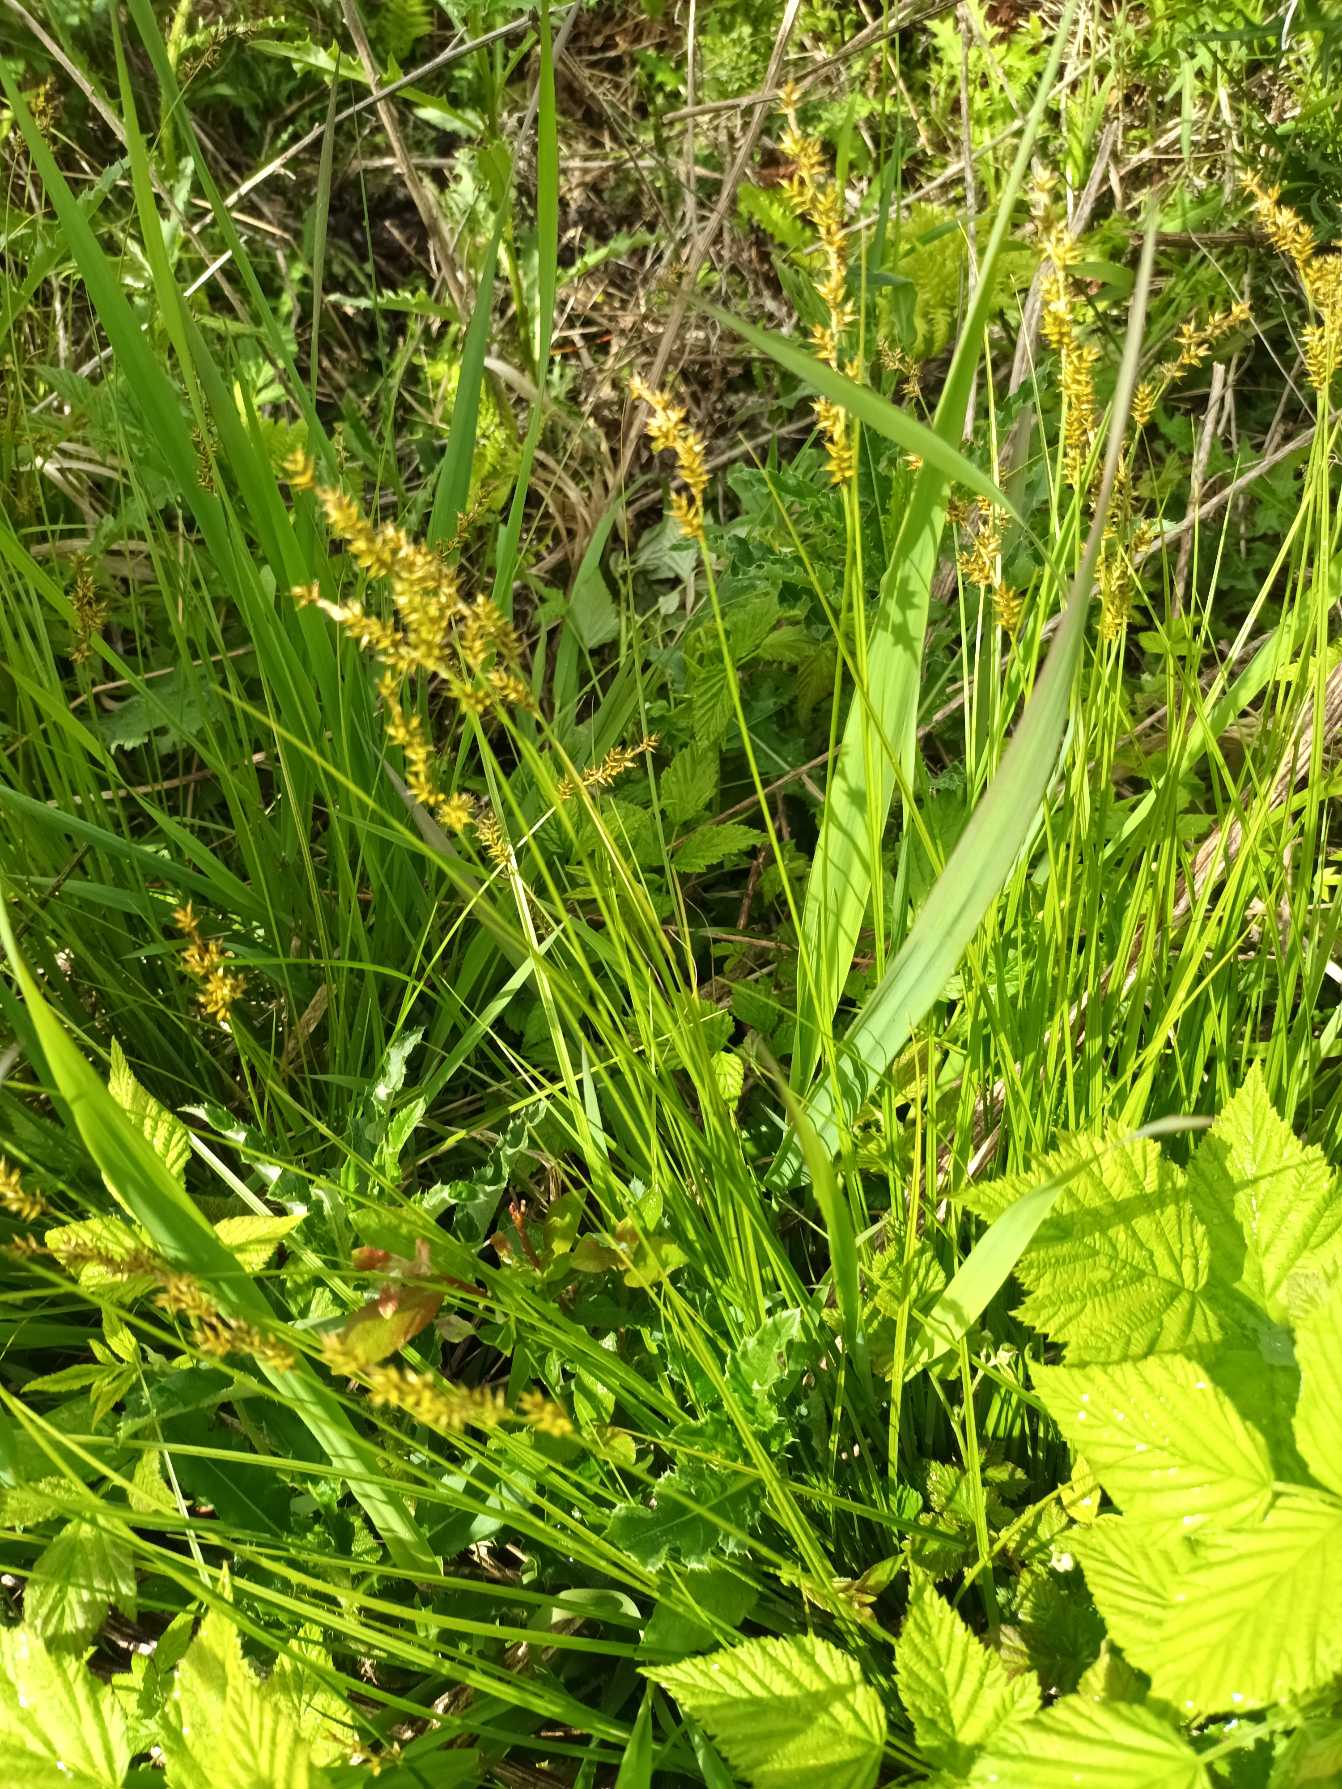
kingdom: Plantae
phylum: Tracheophyta
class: Liliopsida
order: Poales
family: Cyperaceae
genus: Carex
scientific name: Carex elongata
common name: Forlænget star
